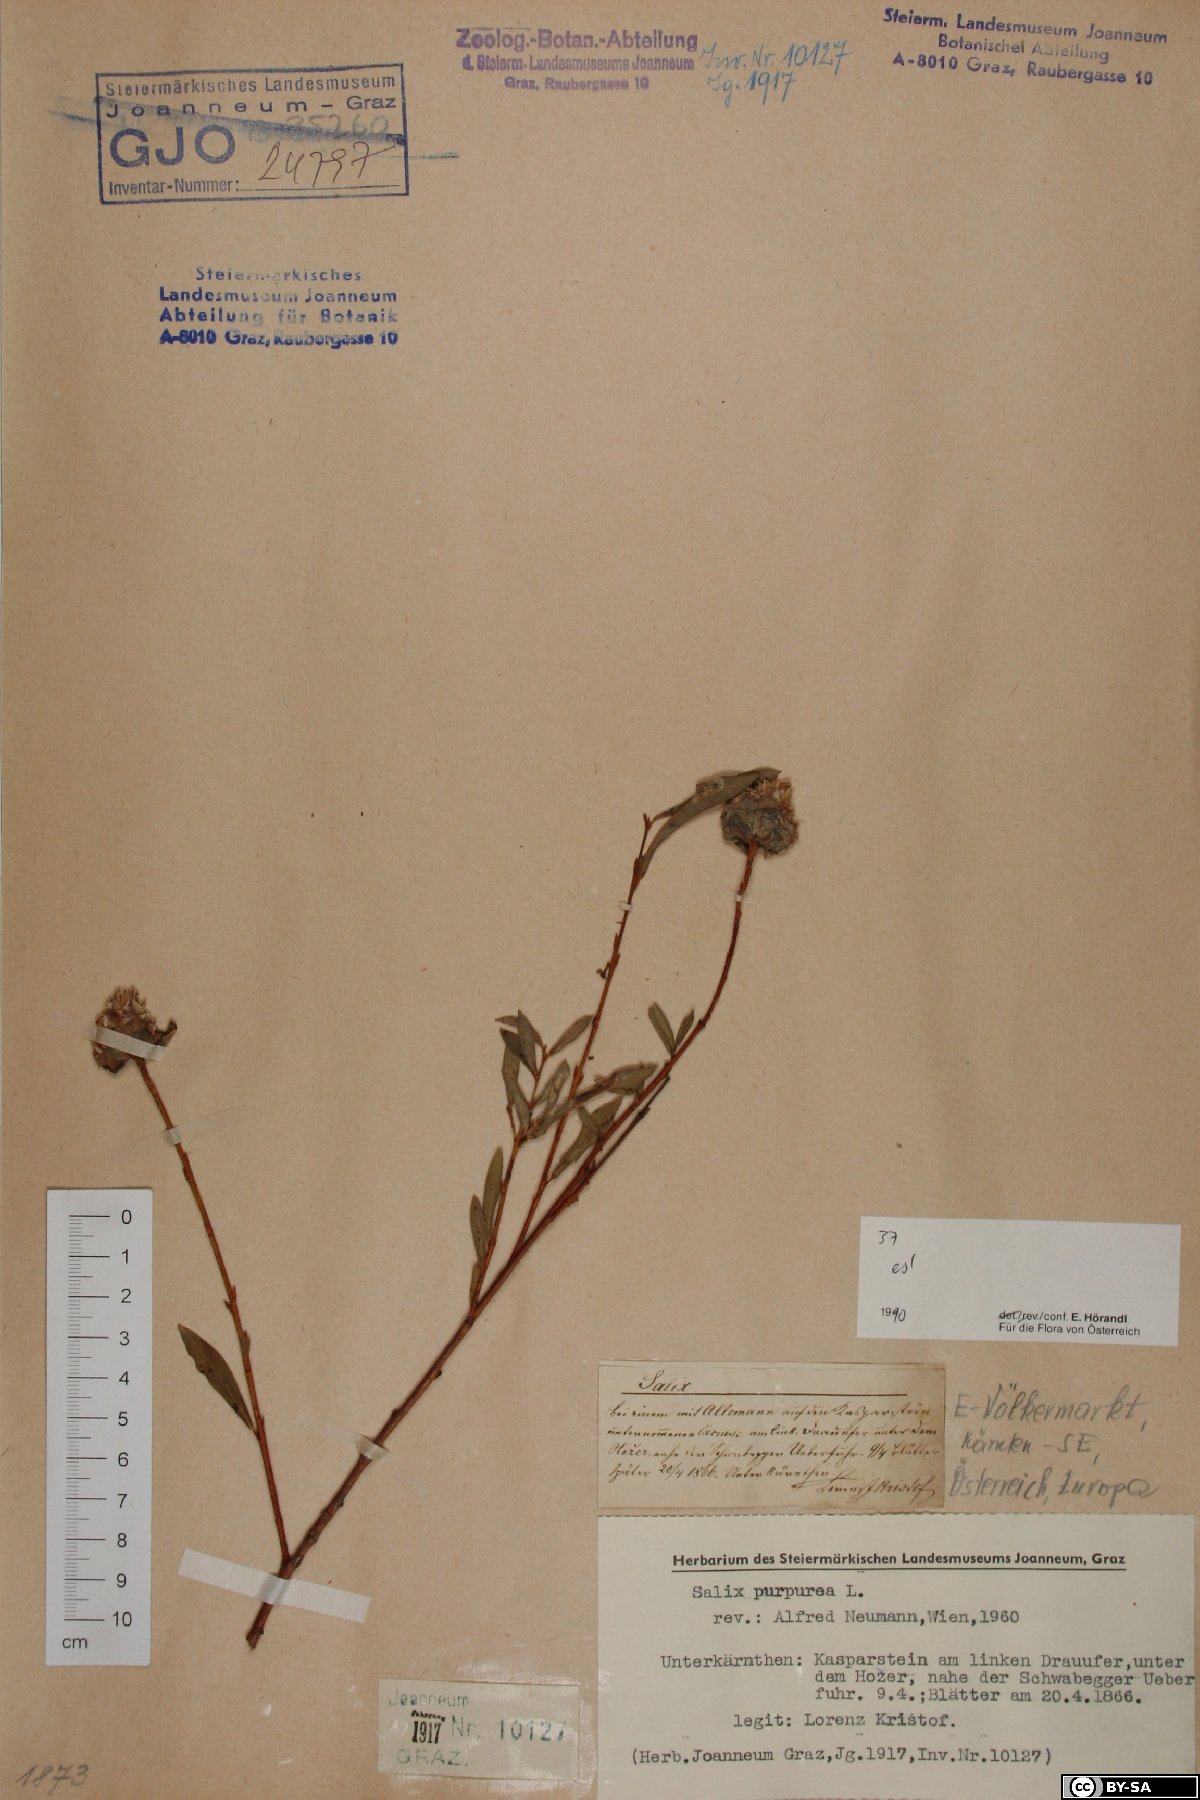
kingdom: Plantae
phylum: Tracheophyta
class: Magnoliopsida
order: Malpighiales
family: Salicaceae
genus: Salix
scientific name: Salix purpurea
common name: Purple willow
